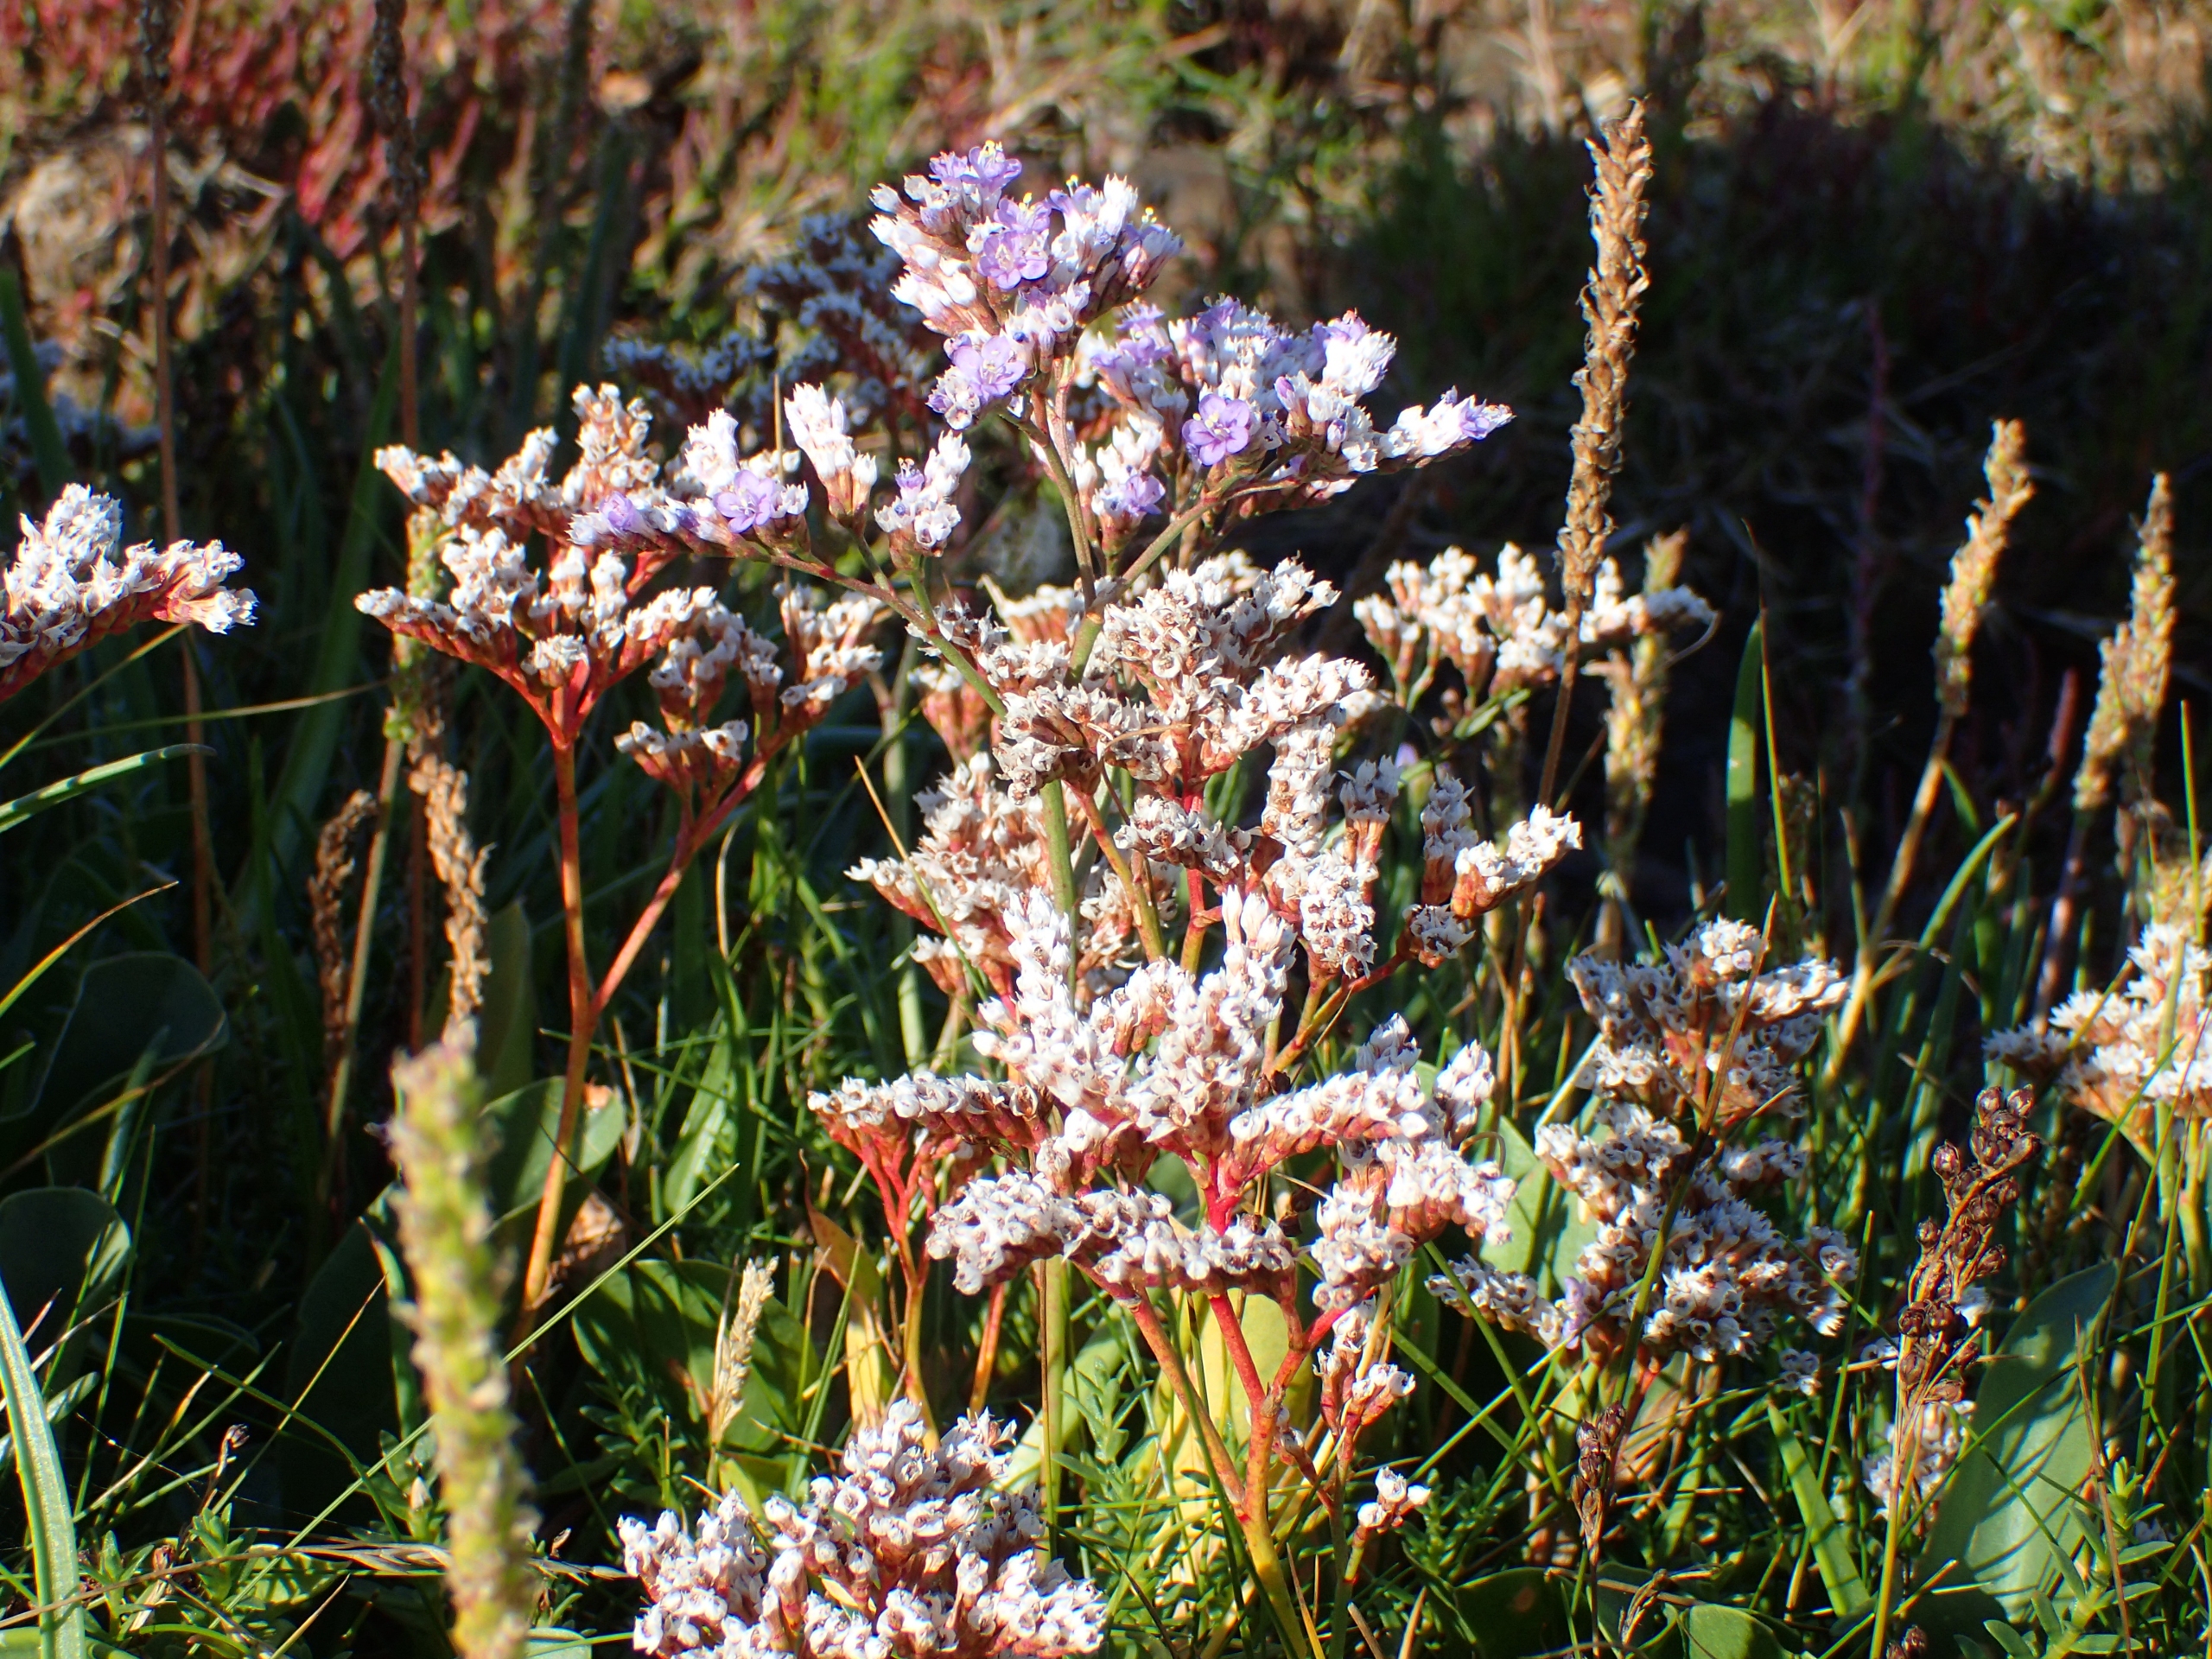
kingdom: Plantae
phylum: Tracheophyta
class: Magnoliopsida
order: Caryophyllales
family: Plumbaginaceae
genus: Limonium
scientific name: Limonium vulgare
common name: Tætblomstret hindebæger
